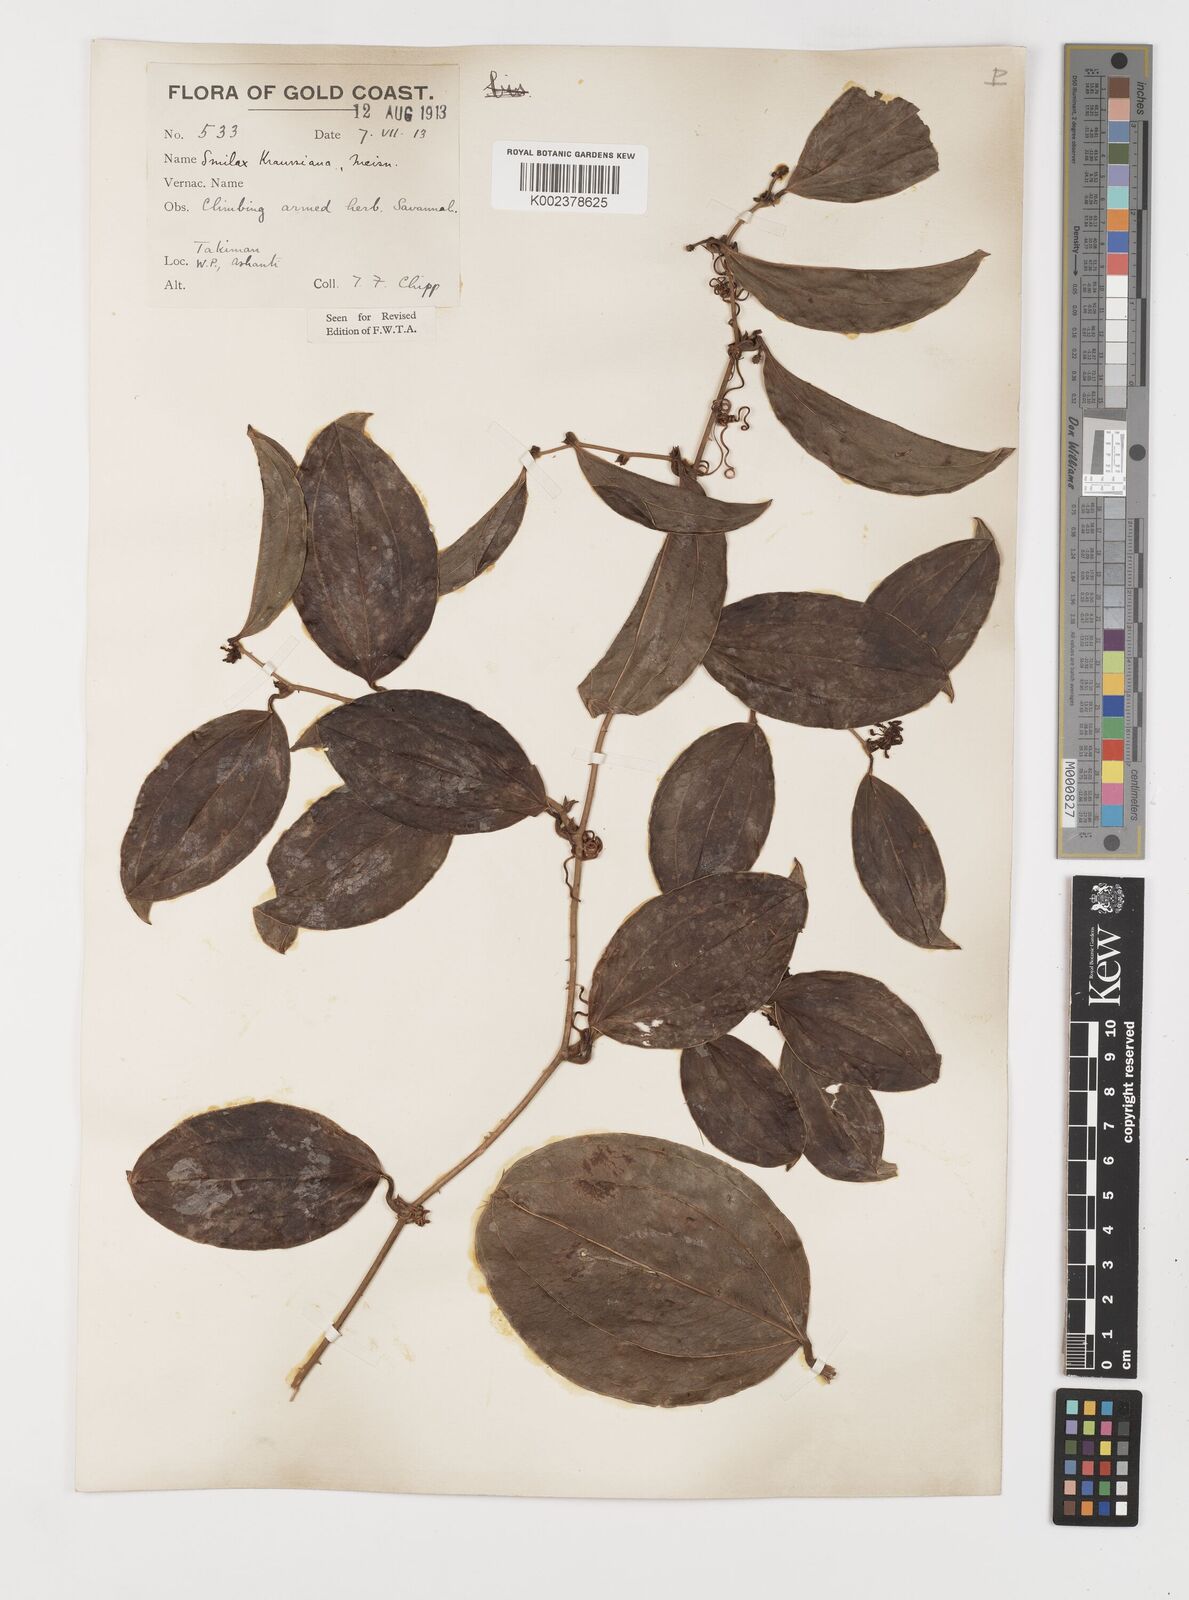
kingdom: Plantae
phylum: Tracheophyta
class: Liliopsida
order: Liliales
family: Smilacaceae
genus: Smilax
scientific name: Smilax anceps
